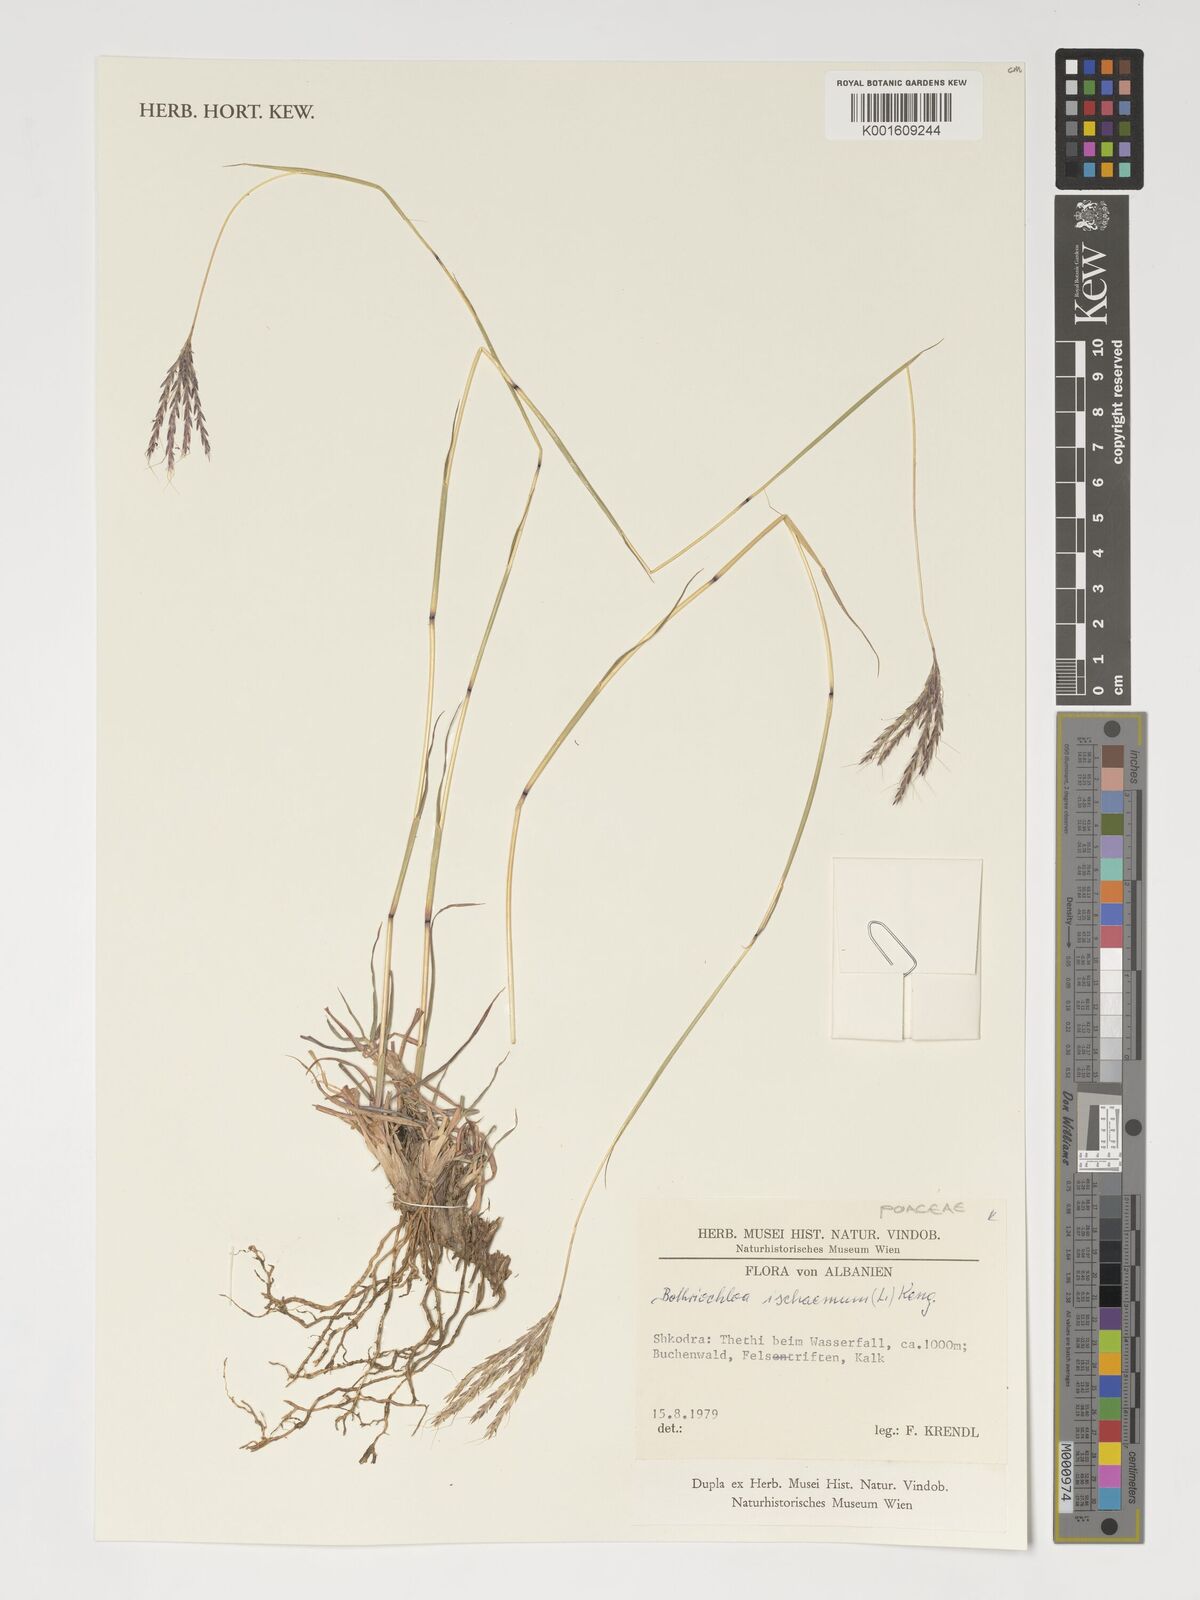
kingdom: Plantae
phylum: Tracheophyta
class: Liliopsida
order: Poales
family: Poaceae
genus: Bothriochloa
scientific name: Bothriochloa ischaemum
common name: Yellow bluestem
